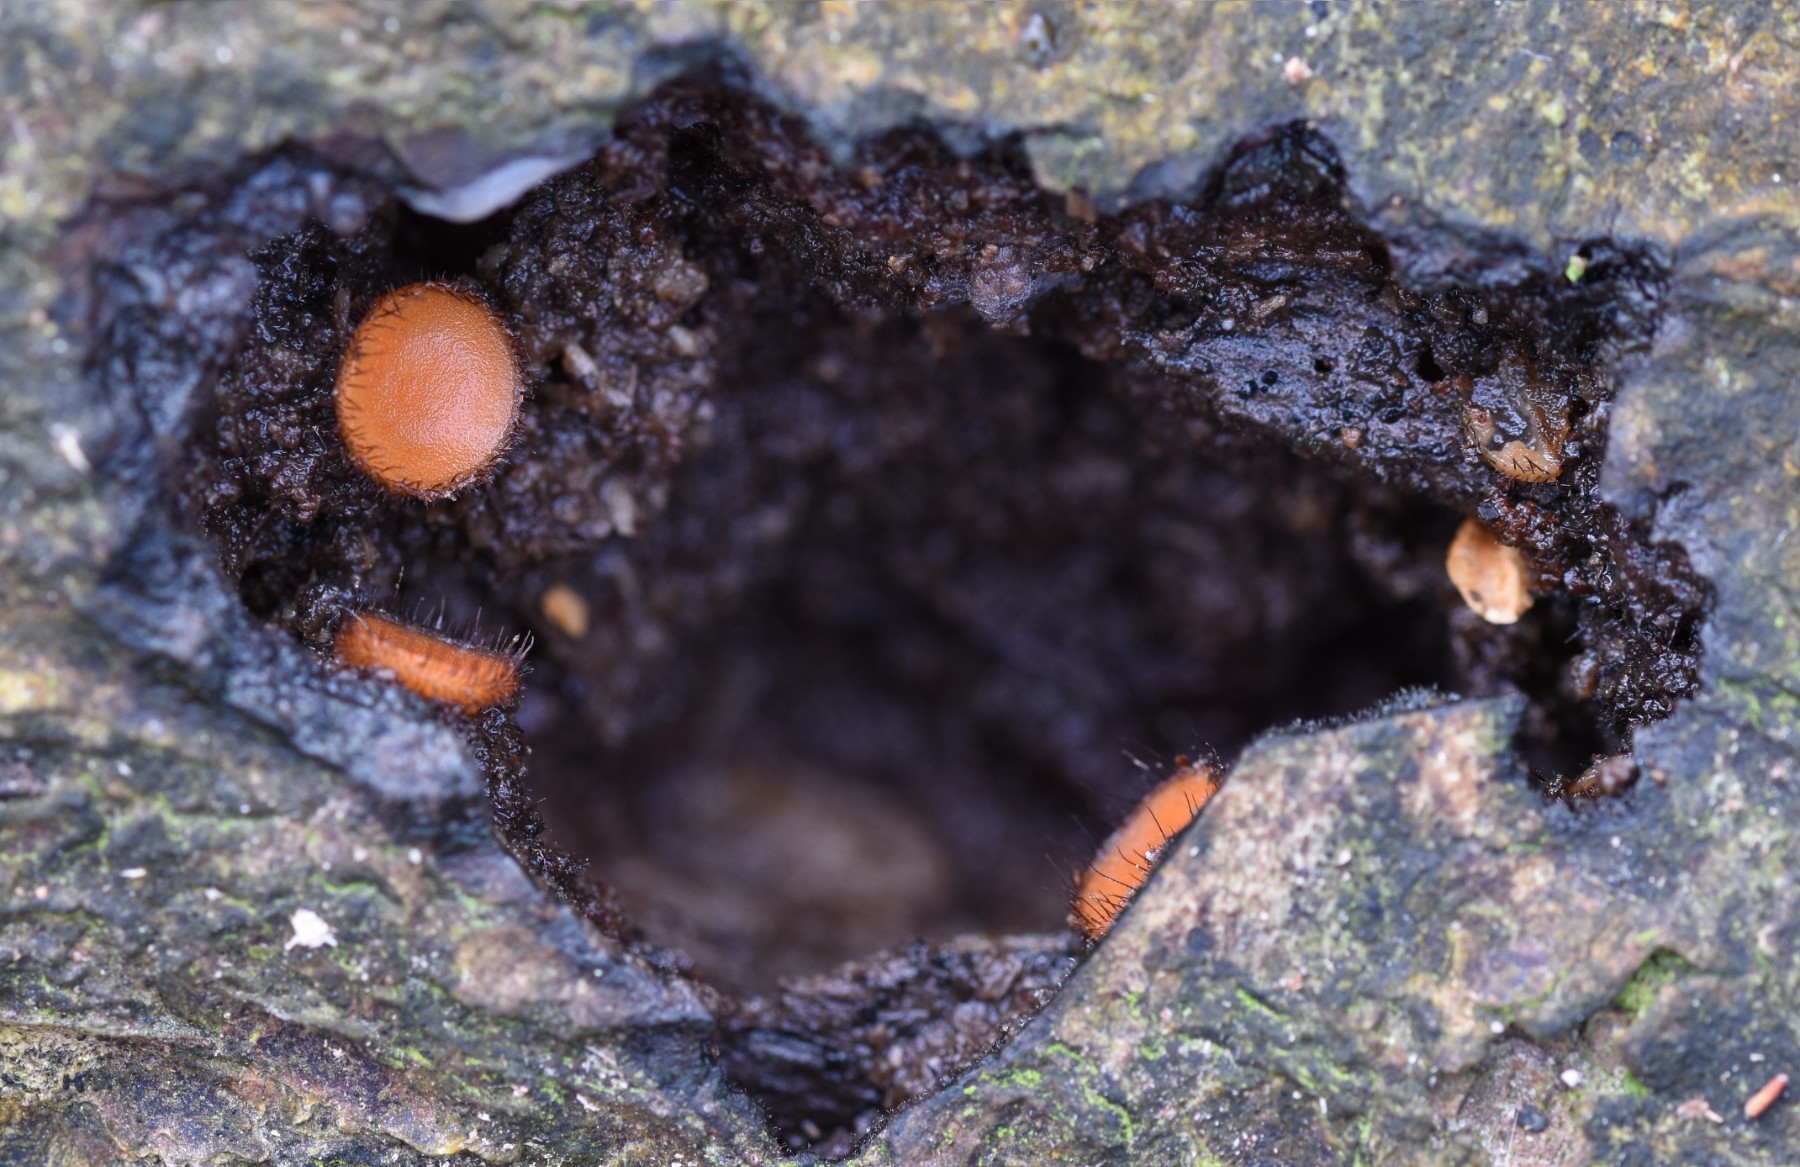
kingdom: Fungi
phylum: Ascomycota
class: Pezizomycetes
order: Pezizales
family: Pyronemataceae
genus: Scutellinia
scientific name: Scutellinia scutellata
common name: frynset skjoldbæger
